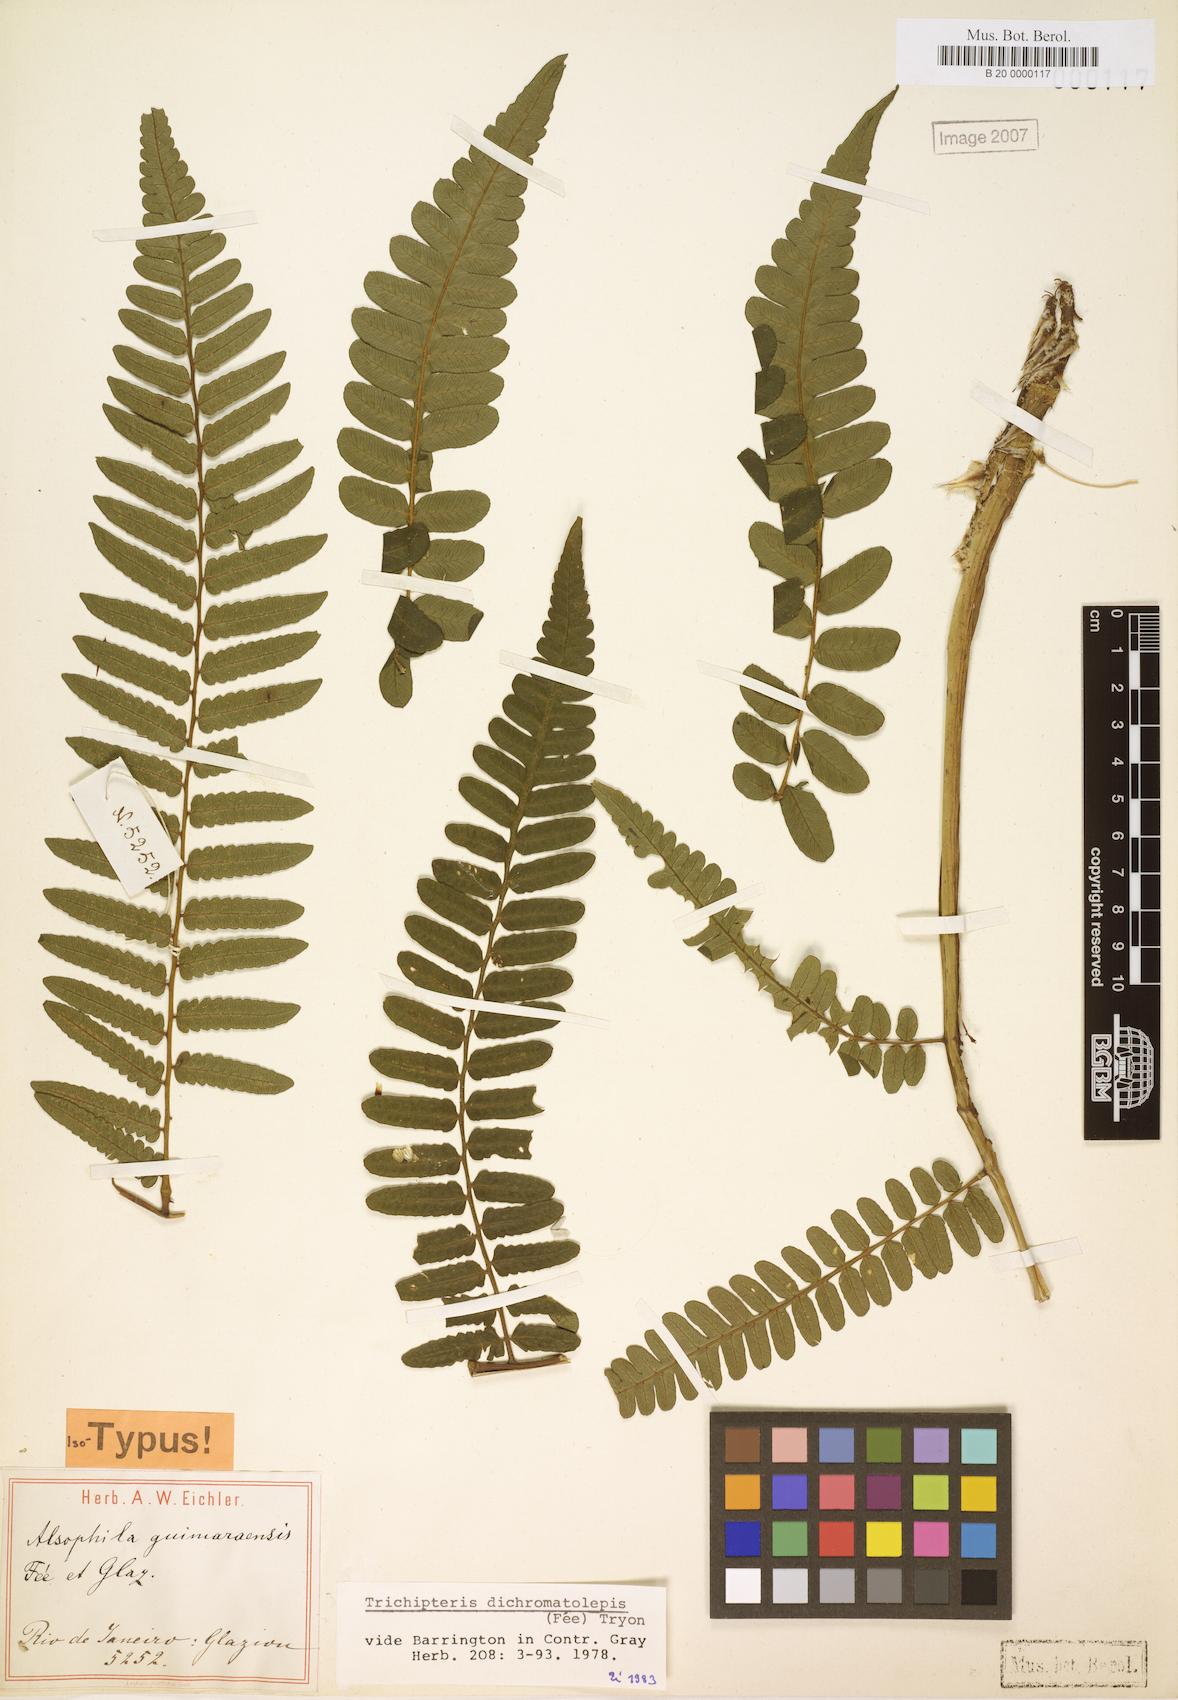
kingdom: Plantae
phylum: Tracheophyta
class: Polypodiopsida
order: Cyatheales
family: Cyatheaceae
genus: Cyathea
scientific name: Cyathea dichromatolepis
